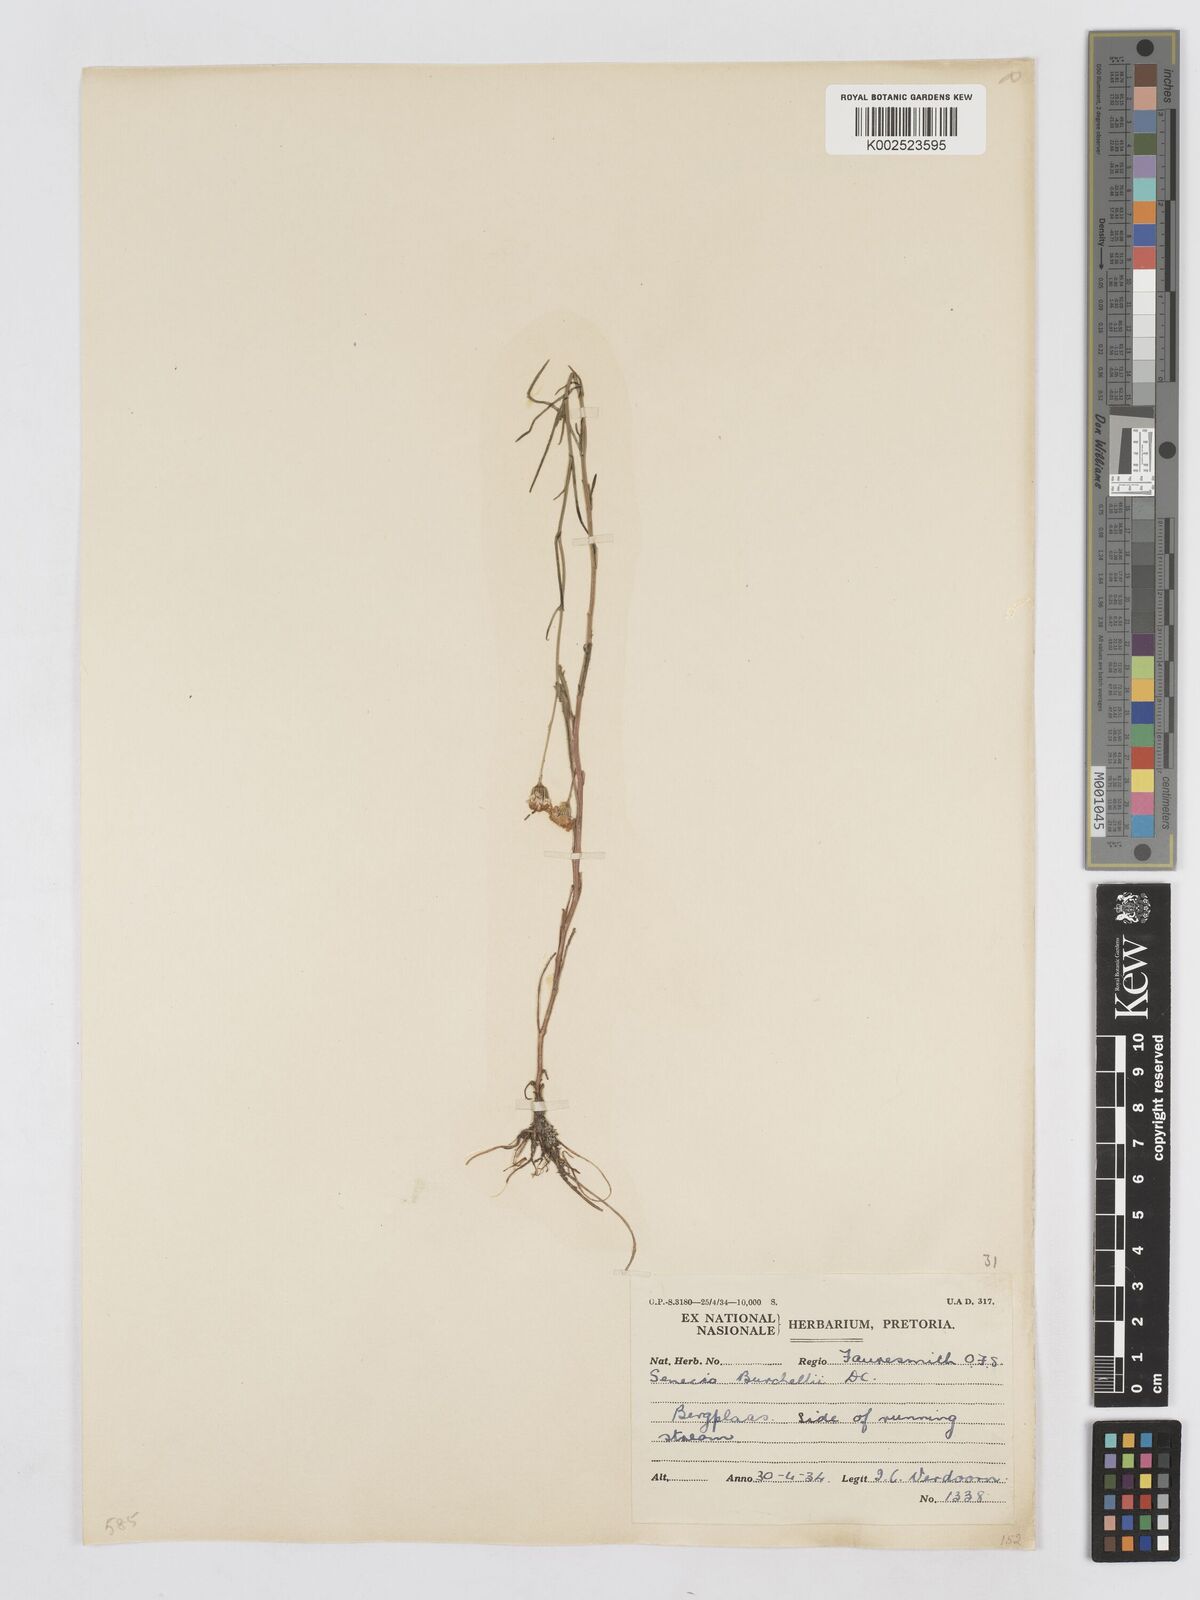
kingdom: Plantae
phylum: Tracheophyta
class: Magnoliopsida
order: Asterales
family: Asteraceae
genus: Senecio
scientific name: Senecio inaequidens
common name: Narrow-leaved ragwort
